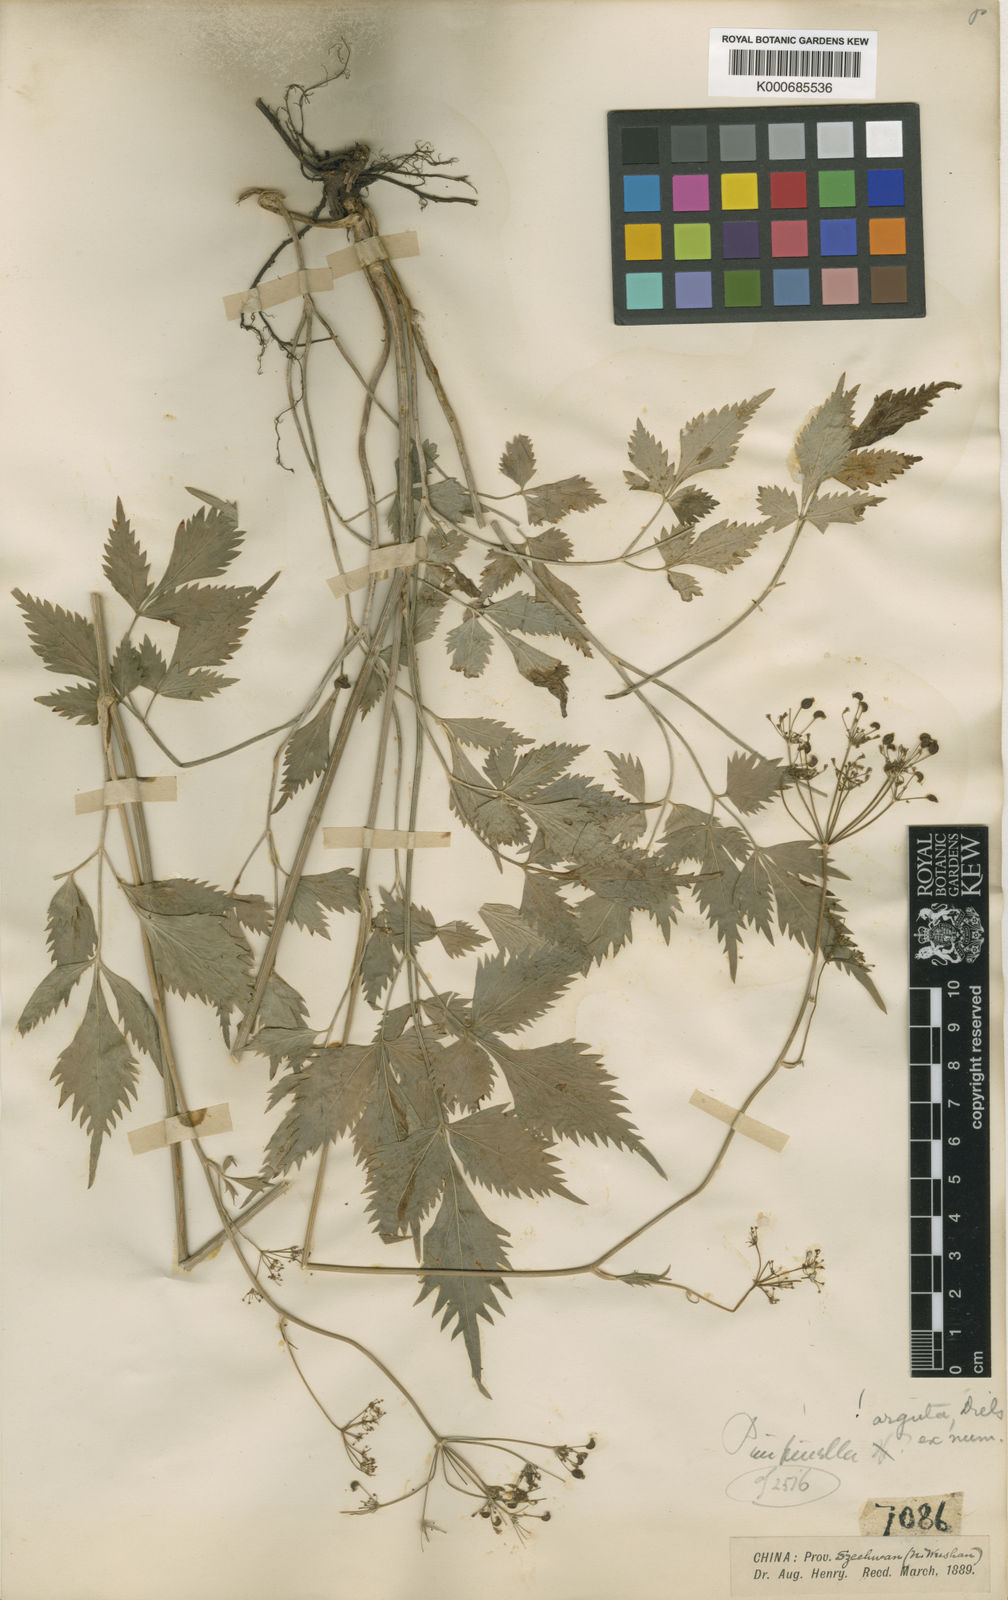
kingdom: Plantae
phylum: Tracheophyta
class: Magnoliopsida
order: Apiales
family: Apiaceae
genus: Spuriopimpinella
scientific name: Spuriopimpinella arguta
